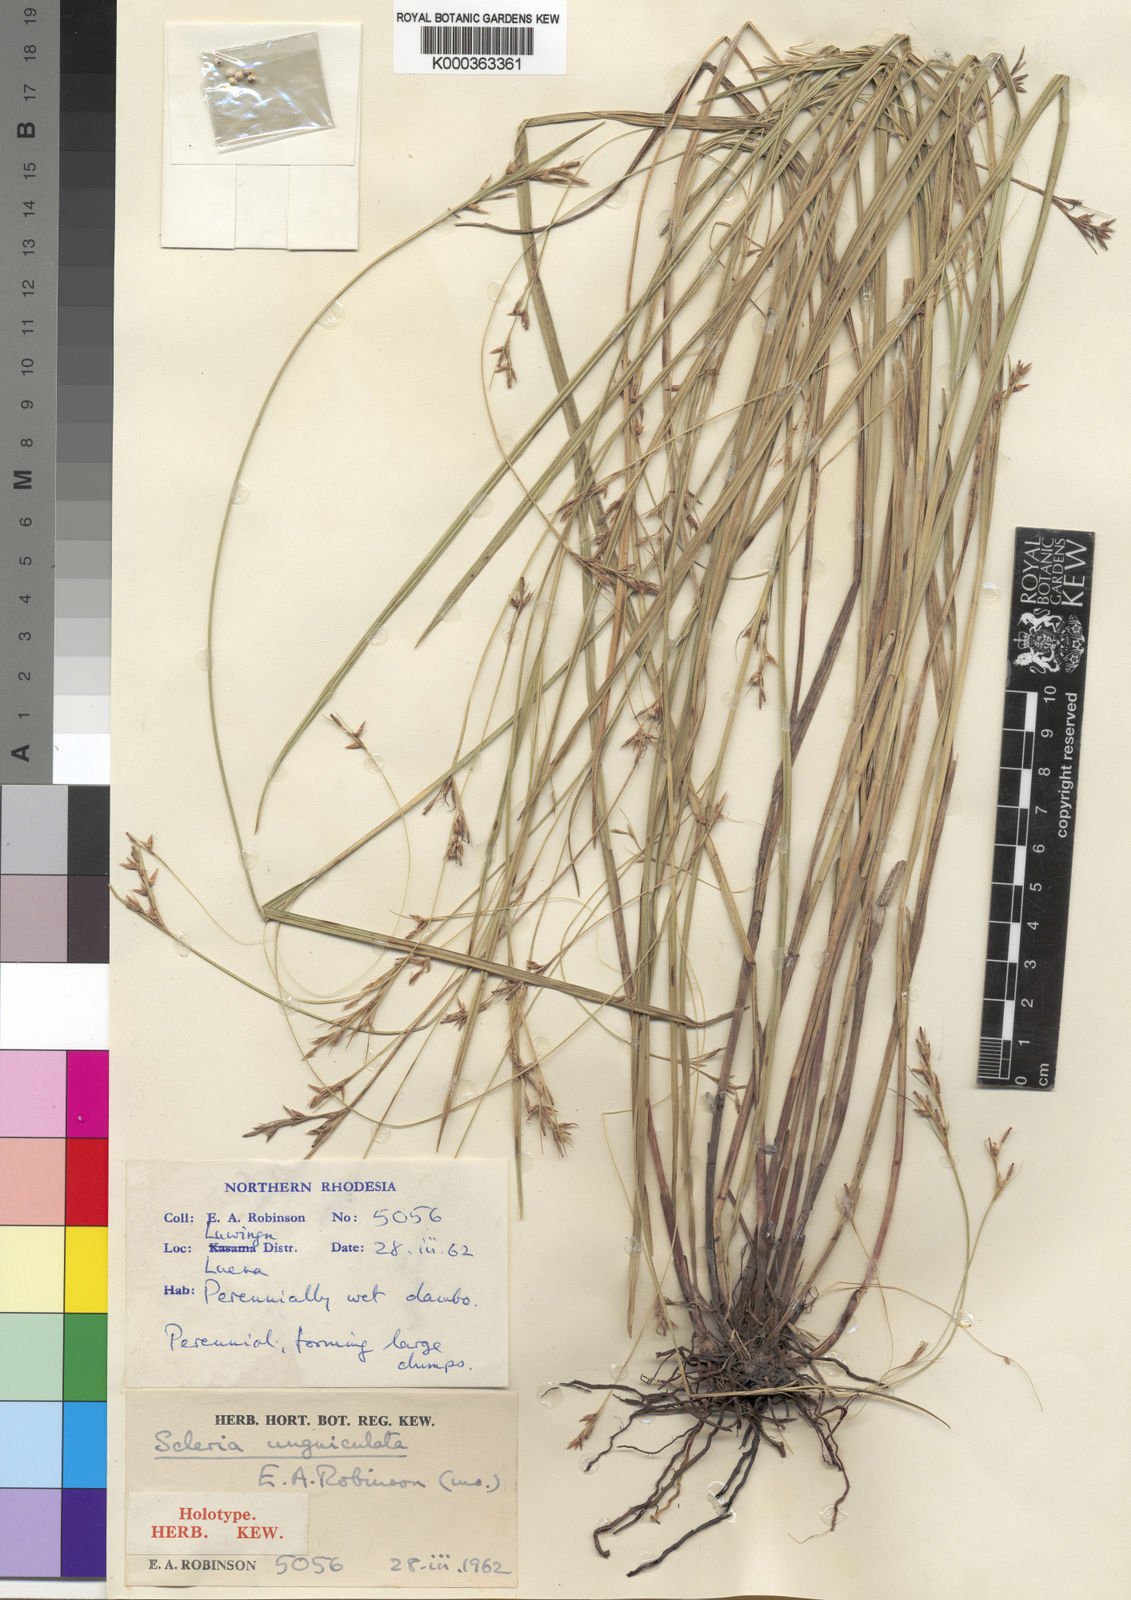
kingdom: Plantae
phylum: Tracheophyta
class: Liliopsida
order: Poales
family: Cyperaceae
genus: Scleria
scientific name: Scleria unguiculata
